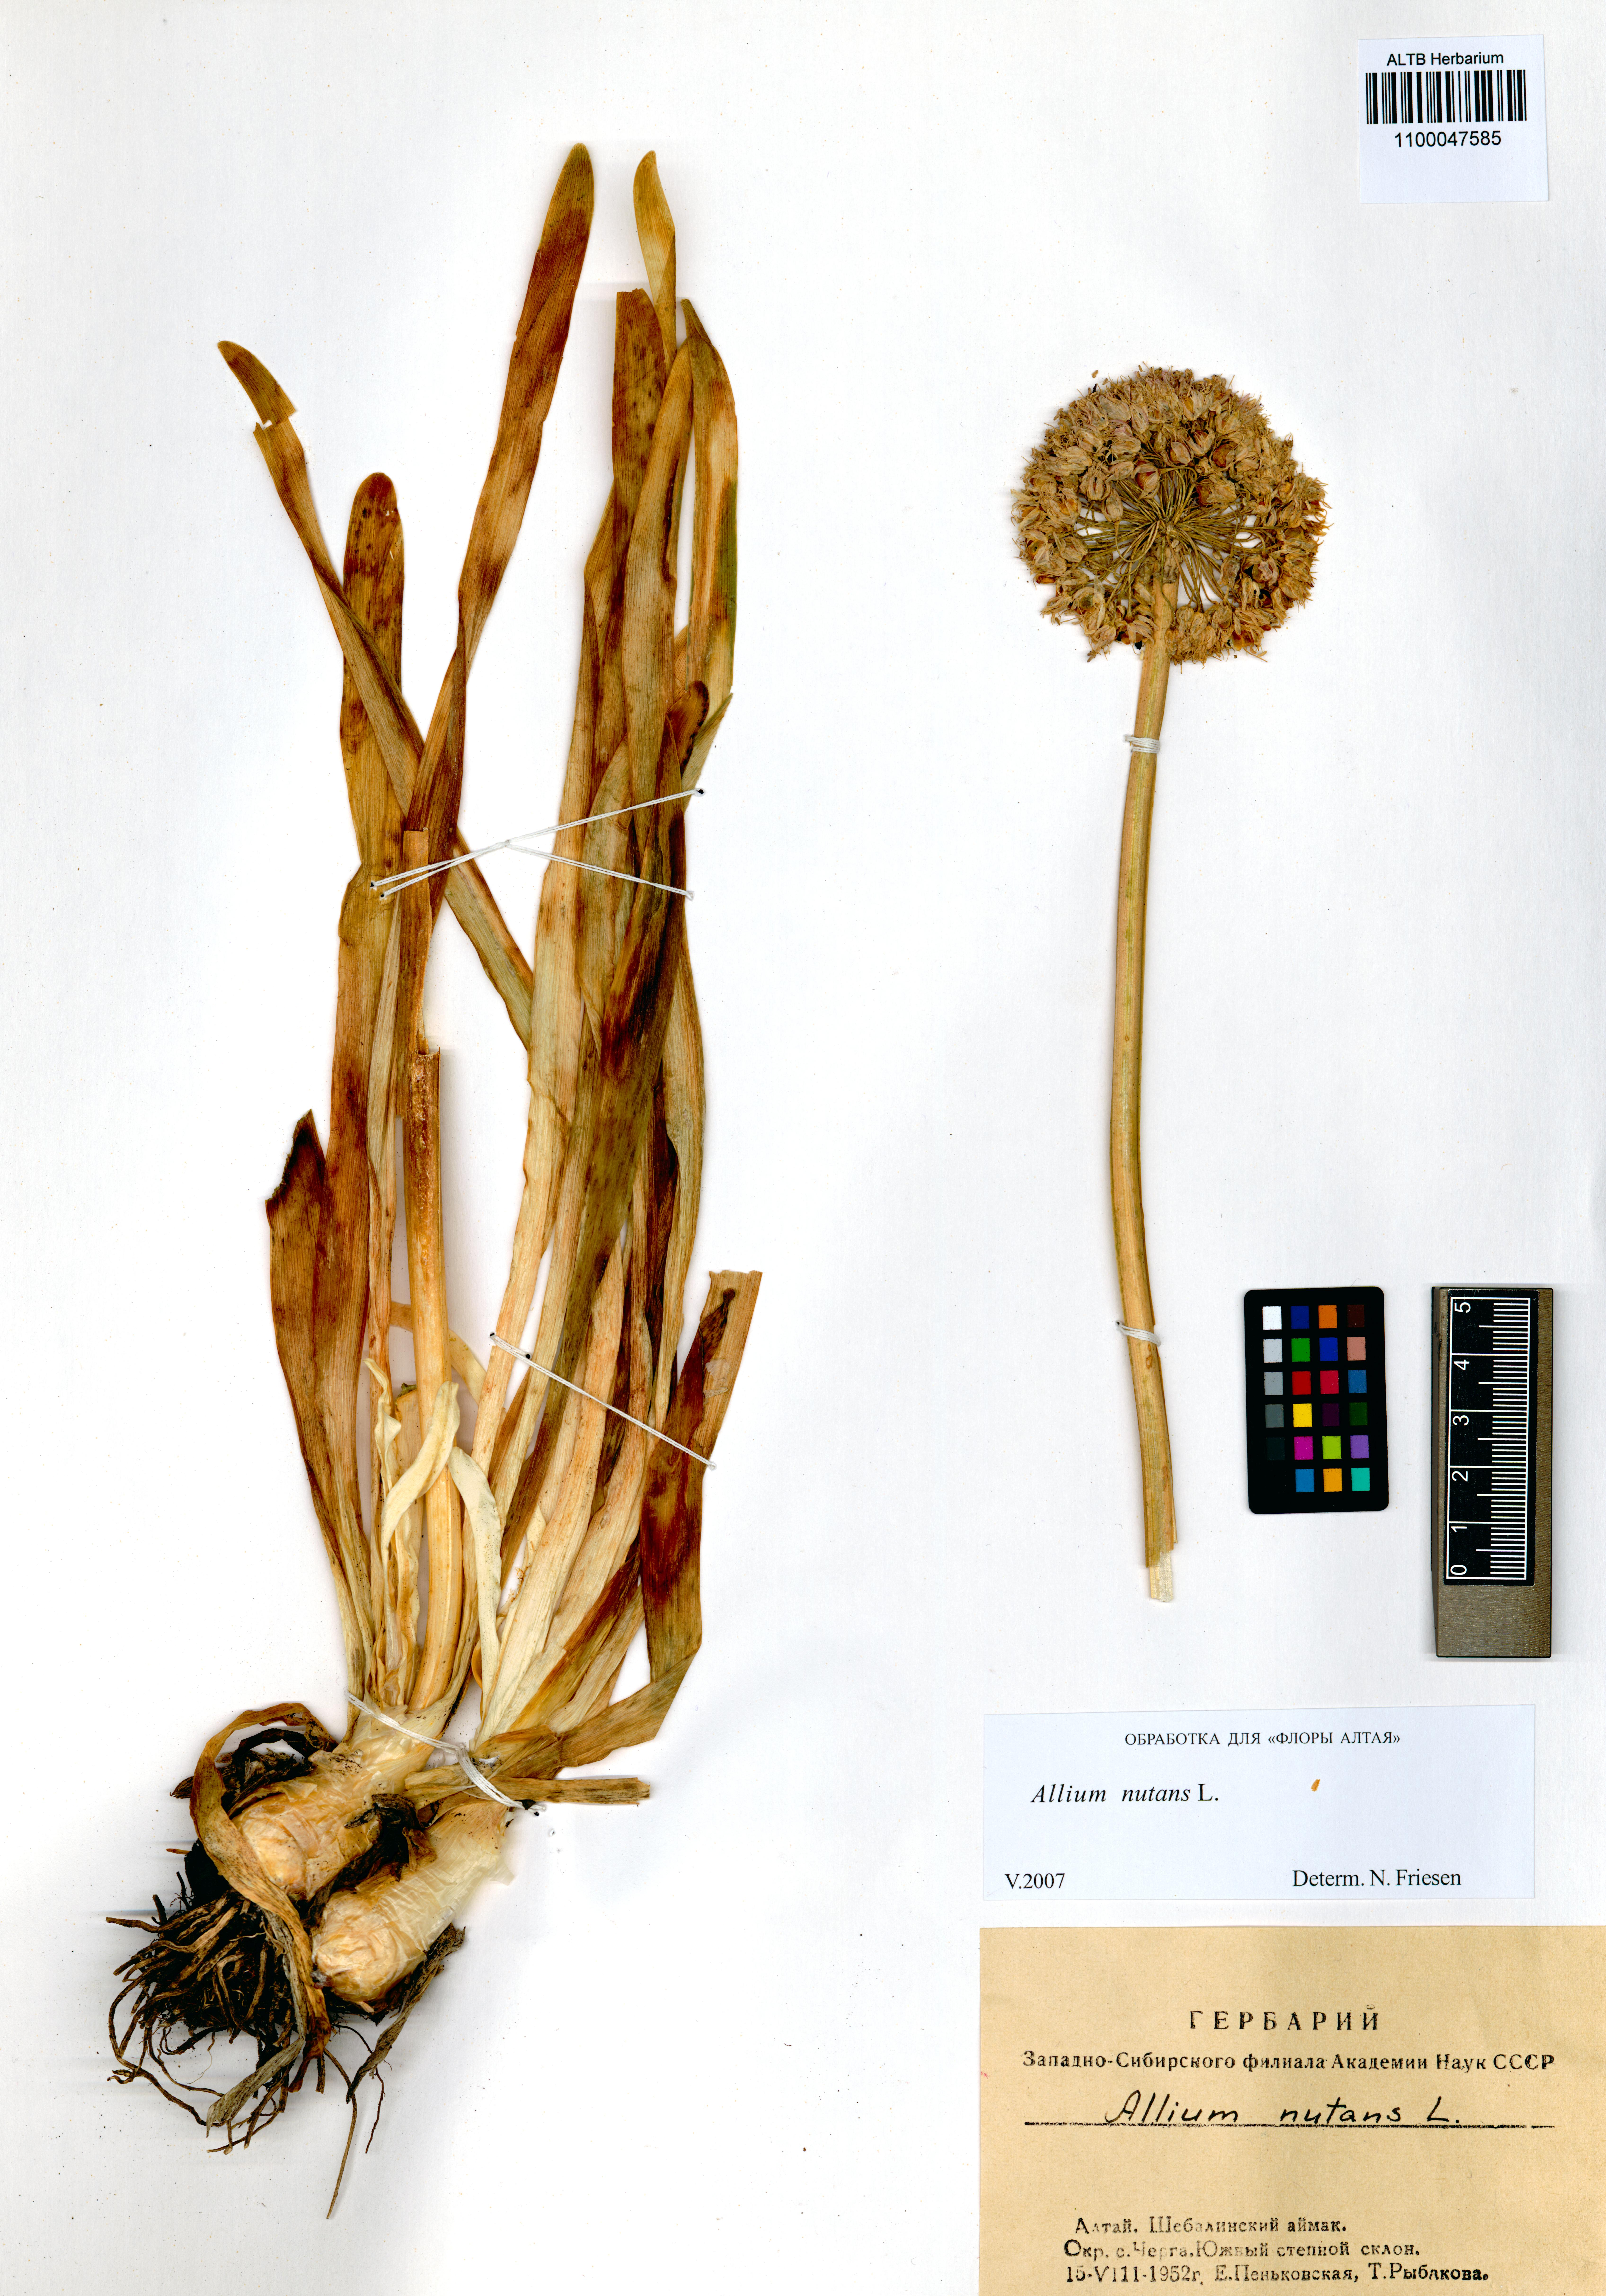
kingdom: Plantae
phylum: Tracheophyta
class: Liliopsida
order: Asparagales
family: Amaryllidaceae
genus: Allium
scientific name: Allium nutans
